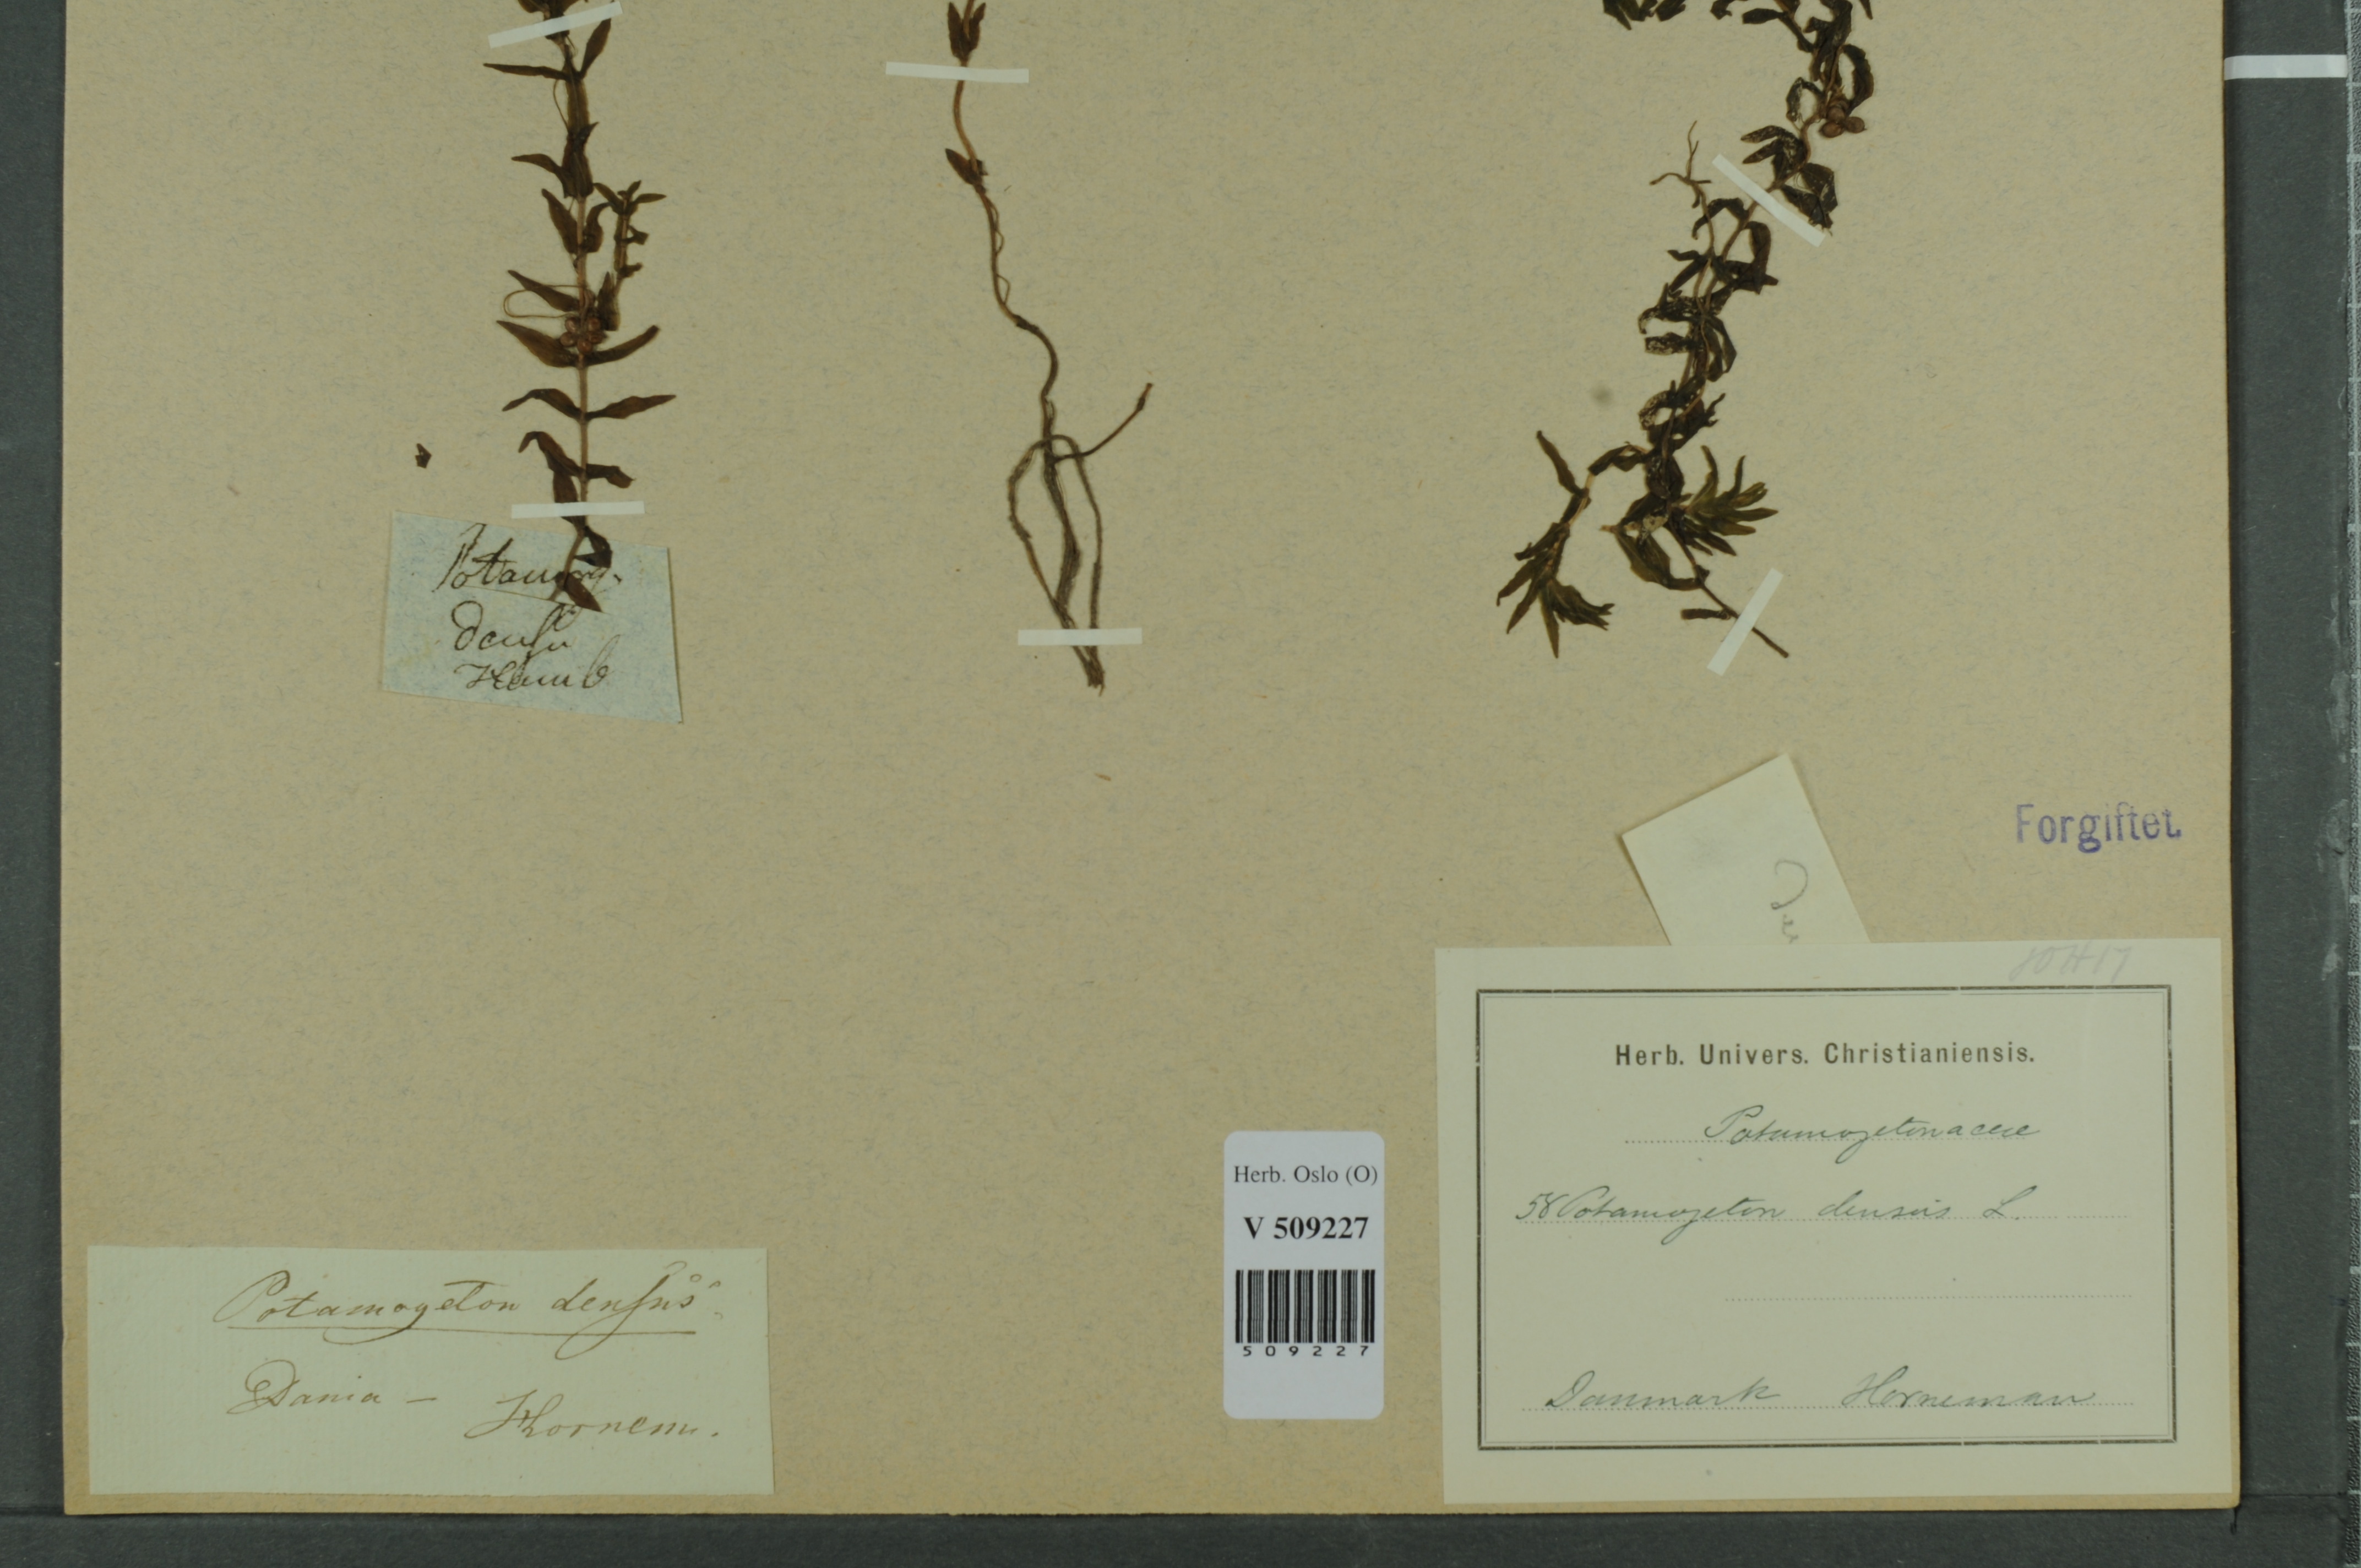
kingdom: Plantae
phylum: Tracheophyta
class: Liliopsida
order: Alismatales
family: Potamogetonaceae
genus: Groenlandia
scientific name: Groenlandia densa
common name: Opposite-leaved pondweed
